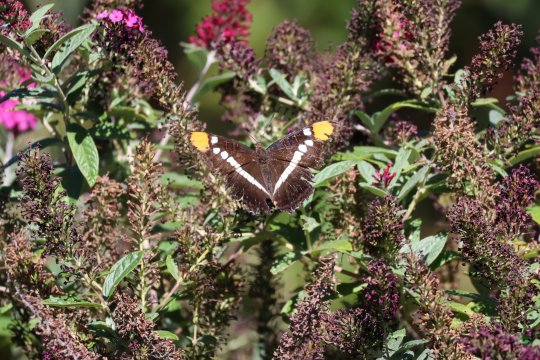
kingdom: Animalia
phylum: Arthropoda
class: Insecta
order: Lepidoptera
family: Nymphalidae
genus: Limenitis
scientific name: Limenitis bredowii
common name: Arizona Sister
